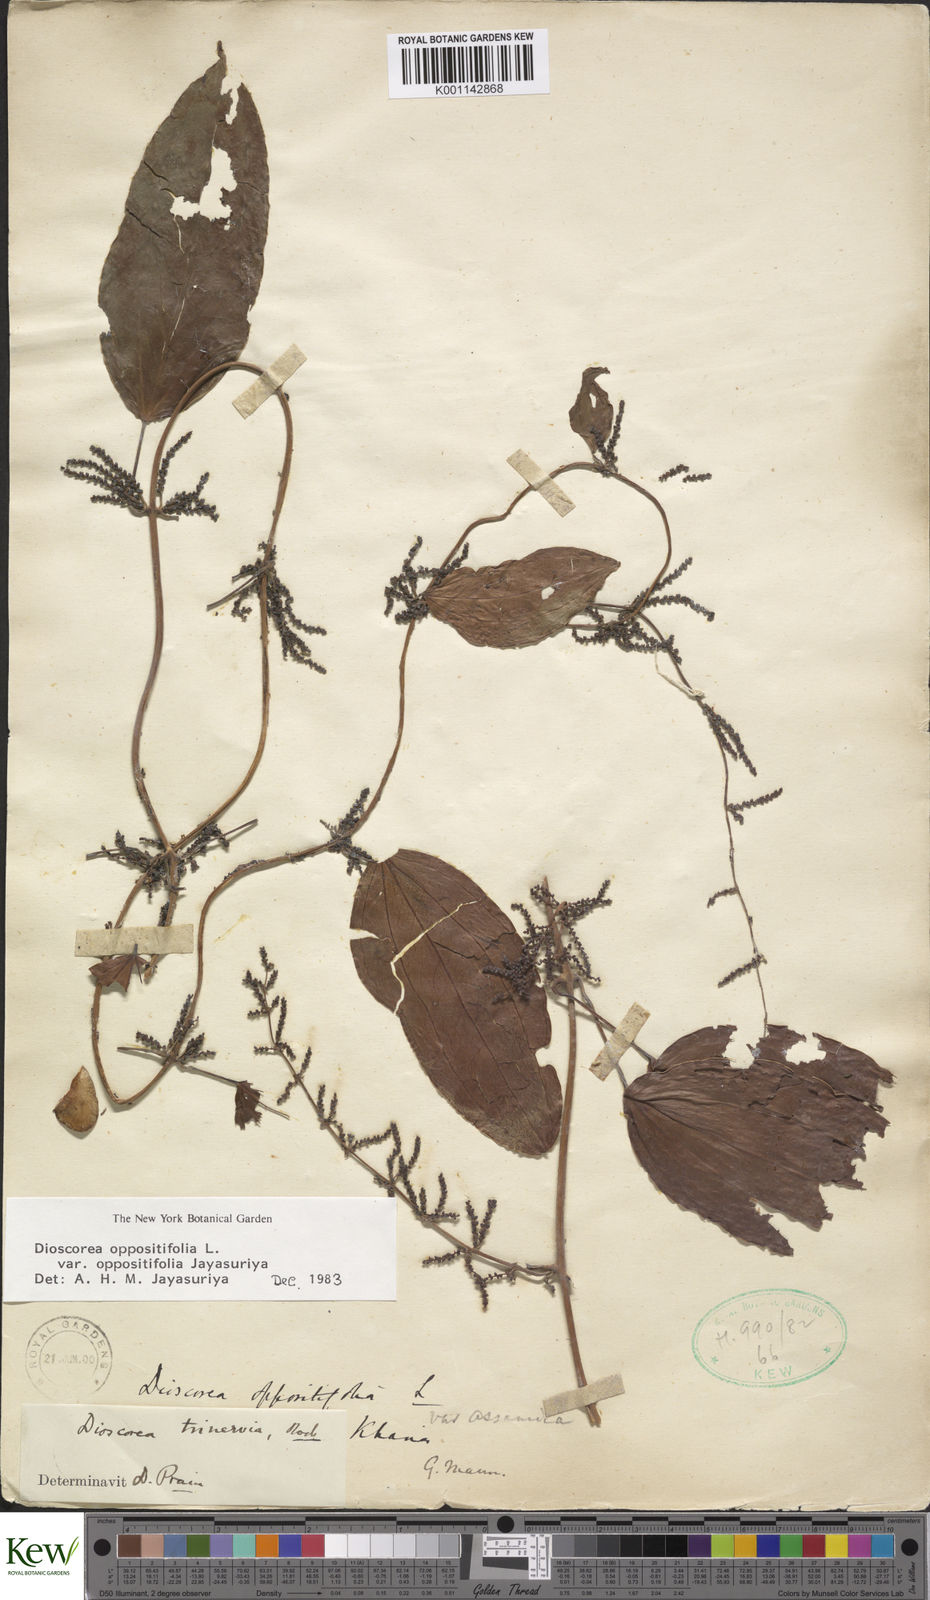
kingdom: Plantae
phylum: Tracheophyta
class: Liliopsida
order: Dioscoreales
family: Dioscoreaceae
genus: Dioscorea
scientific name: Dioscorea oppositifolia
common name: Chinese yam
